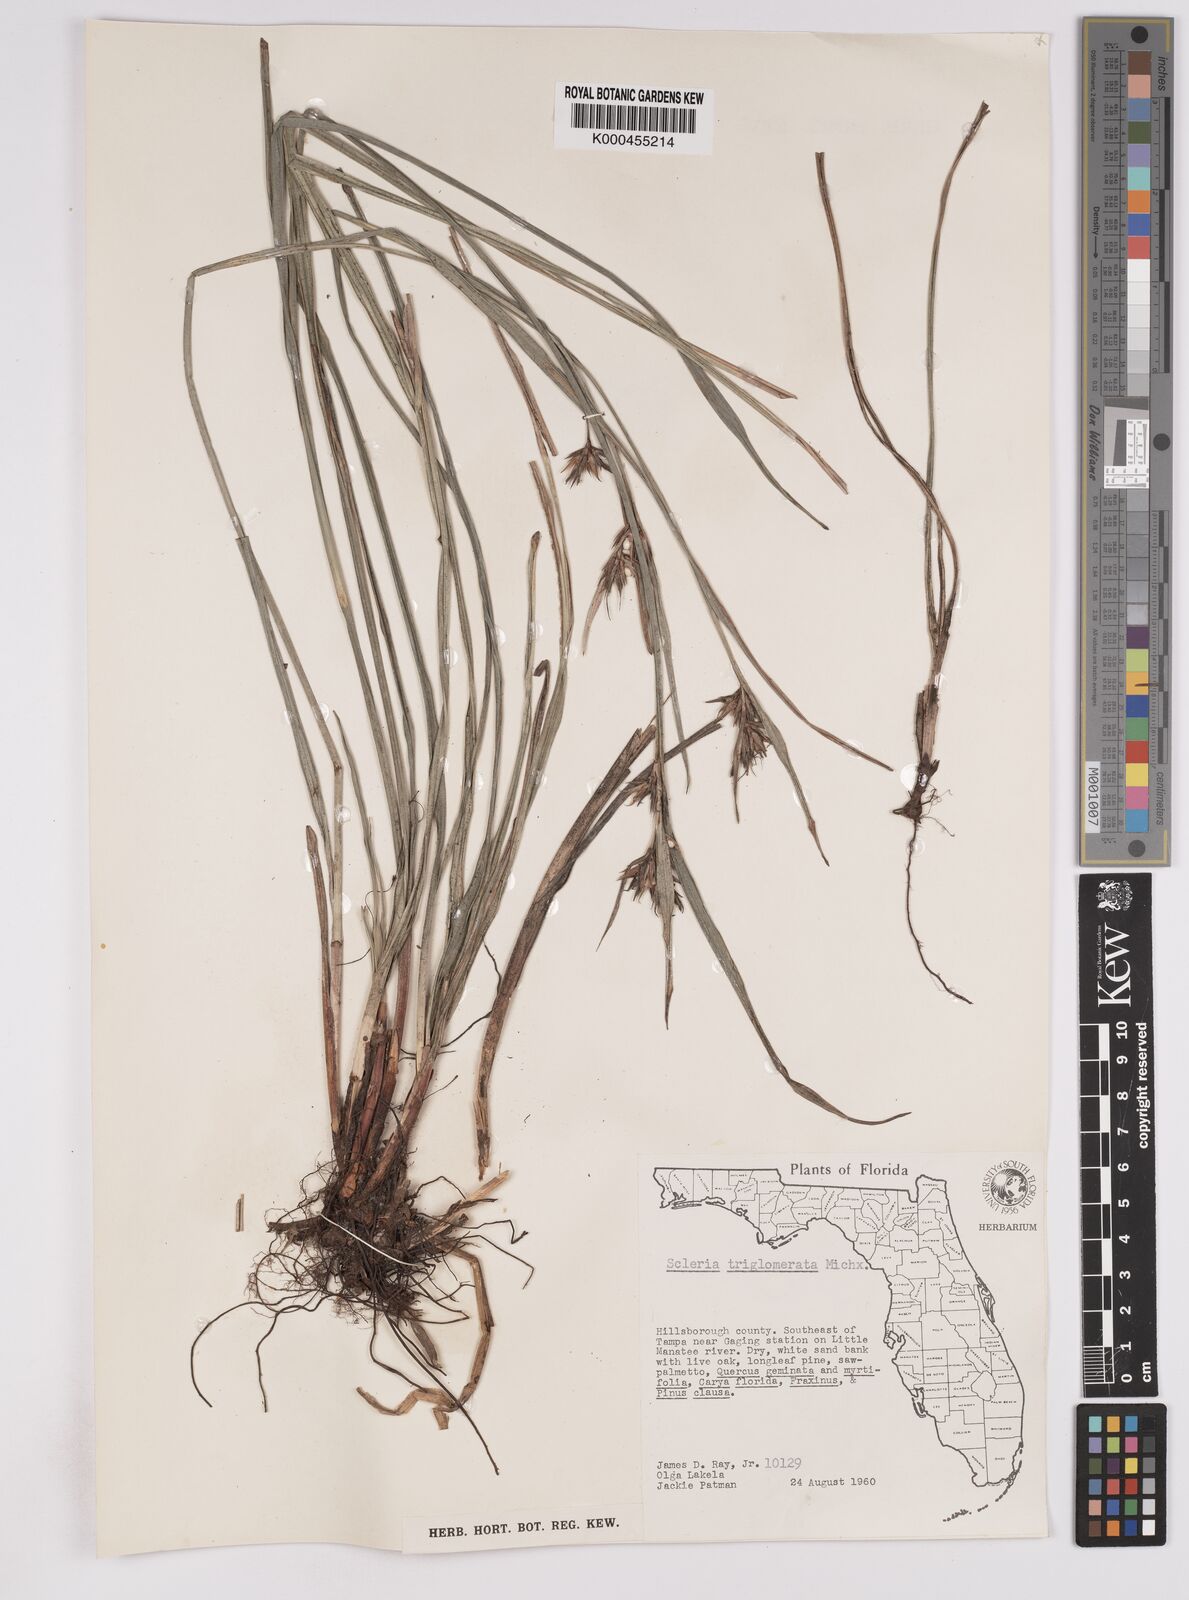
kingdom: Plantae
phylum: Tracheophyta
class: Liliopsida
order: Poales
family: Cyperaceae
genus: Scleria
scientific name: Scleria triglomerata
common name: Whip nutrush
